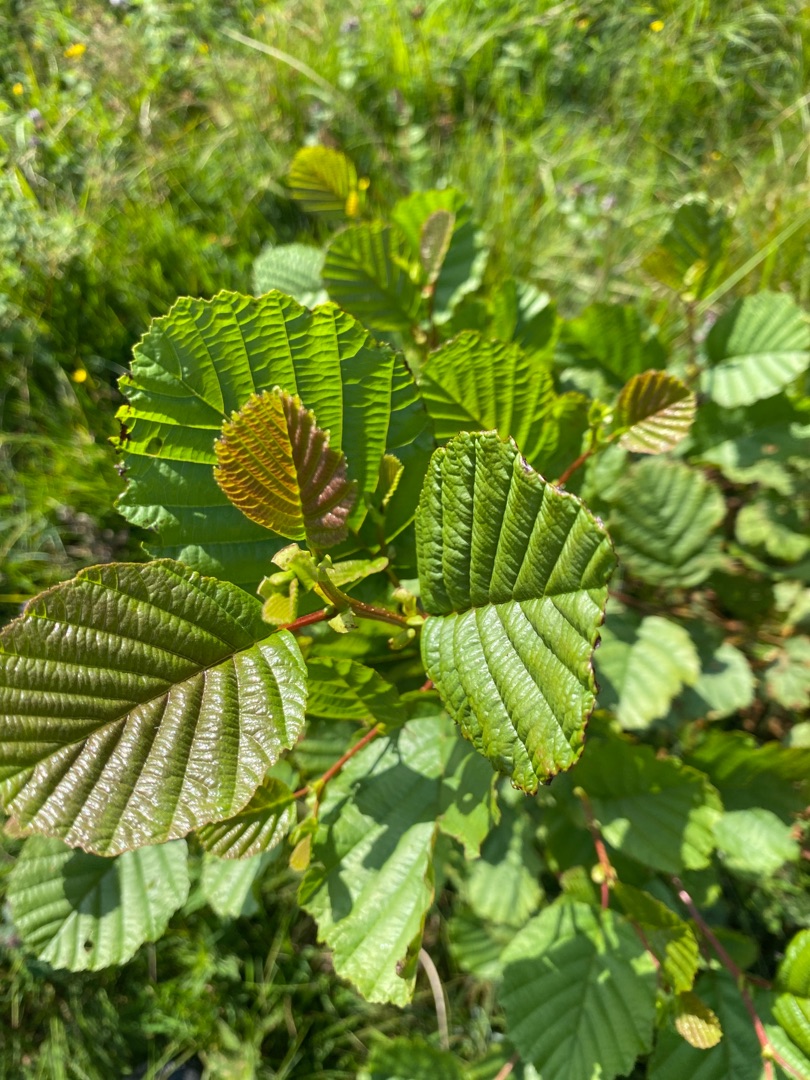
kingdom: Plantae
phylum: Tracheophyta
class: Magnoliopsida
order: Fagales
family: Betulaceae
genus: Alnus
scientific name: Alnus glutinosa
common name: Rød-el
